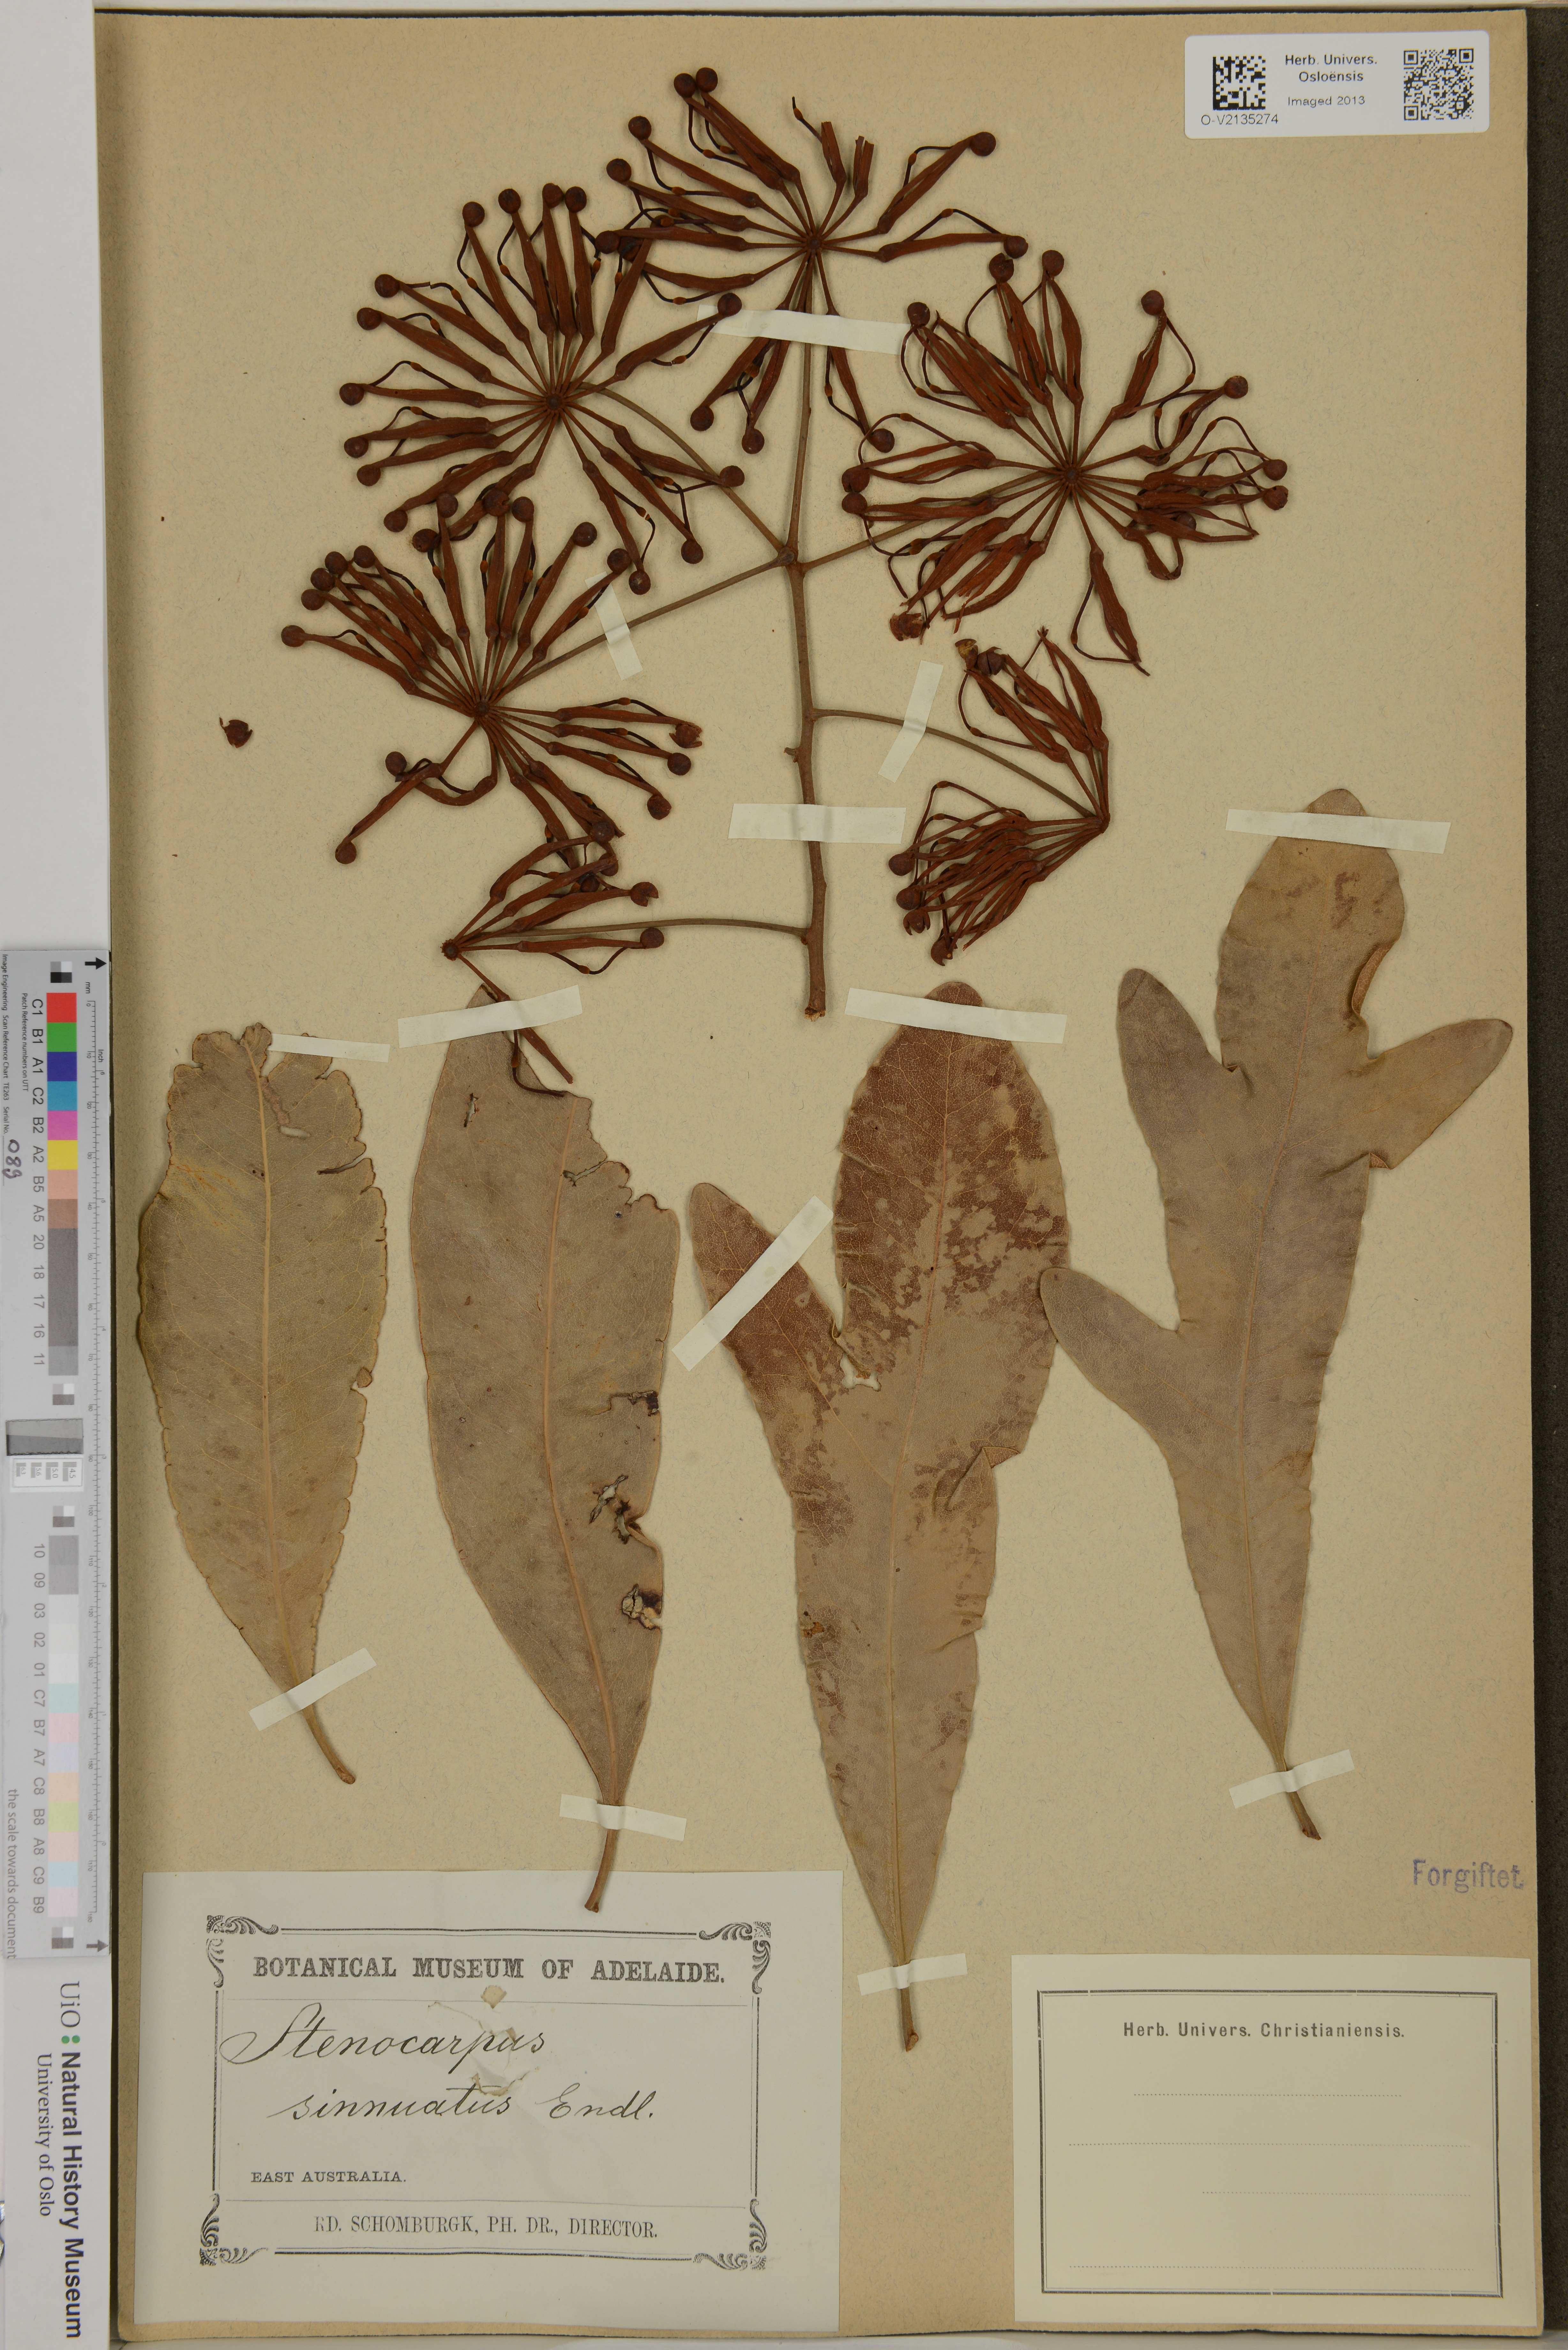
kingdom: Plantae
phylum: Tracheophyta
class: Magnoliopsida
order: Proteales
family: Proteaceae
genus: Stenocarpus
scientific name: Stenocarpus sinuatus
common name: Queensland fire-wheel-tree
